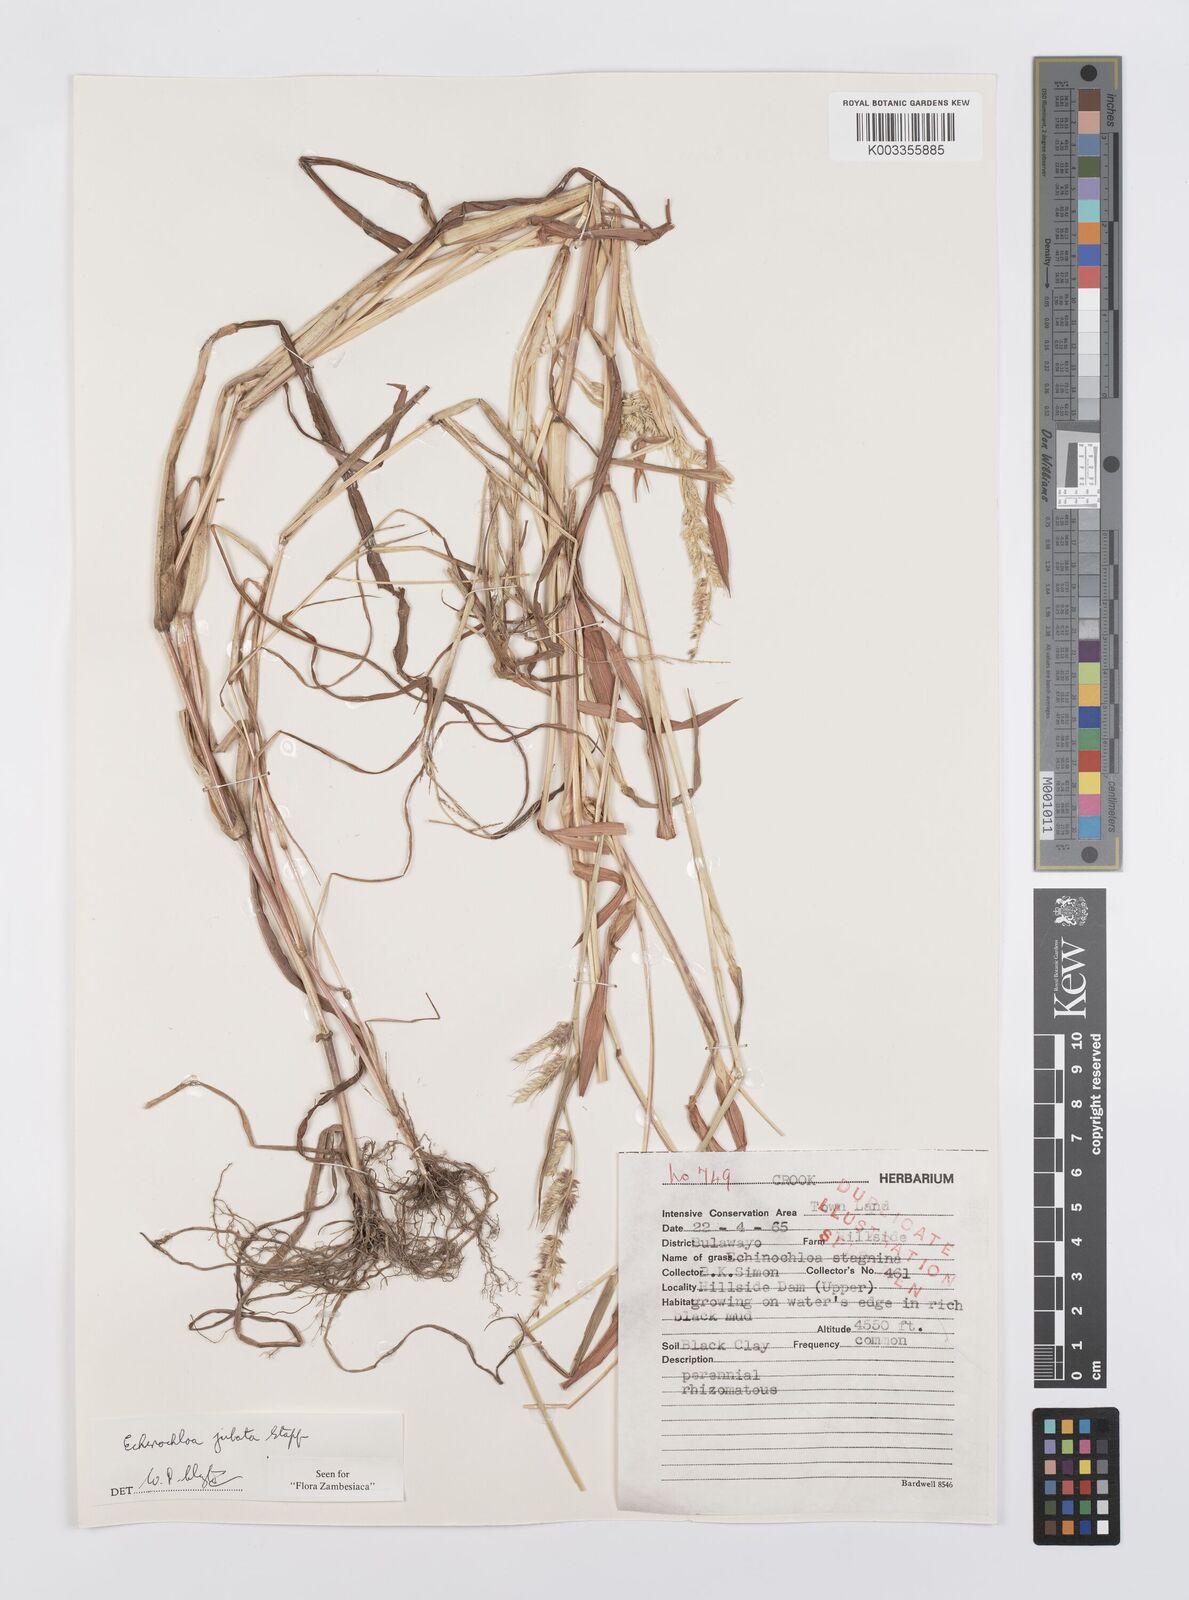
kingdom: Plantae
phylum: Tracheophyta
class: Liliopsida
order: Poales
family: Poaceae
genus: Echinochloa
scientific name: Echinochloa jubata
